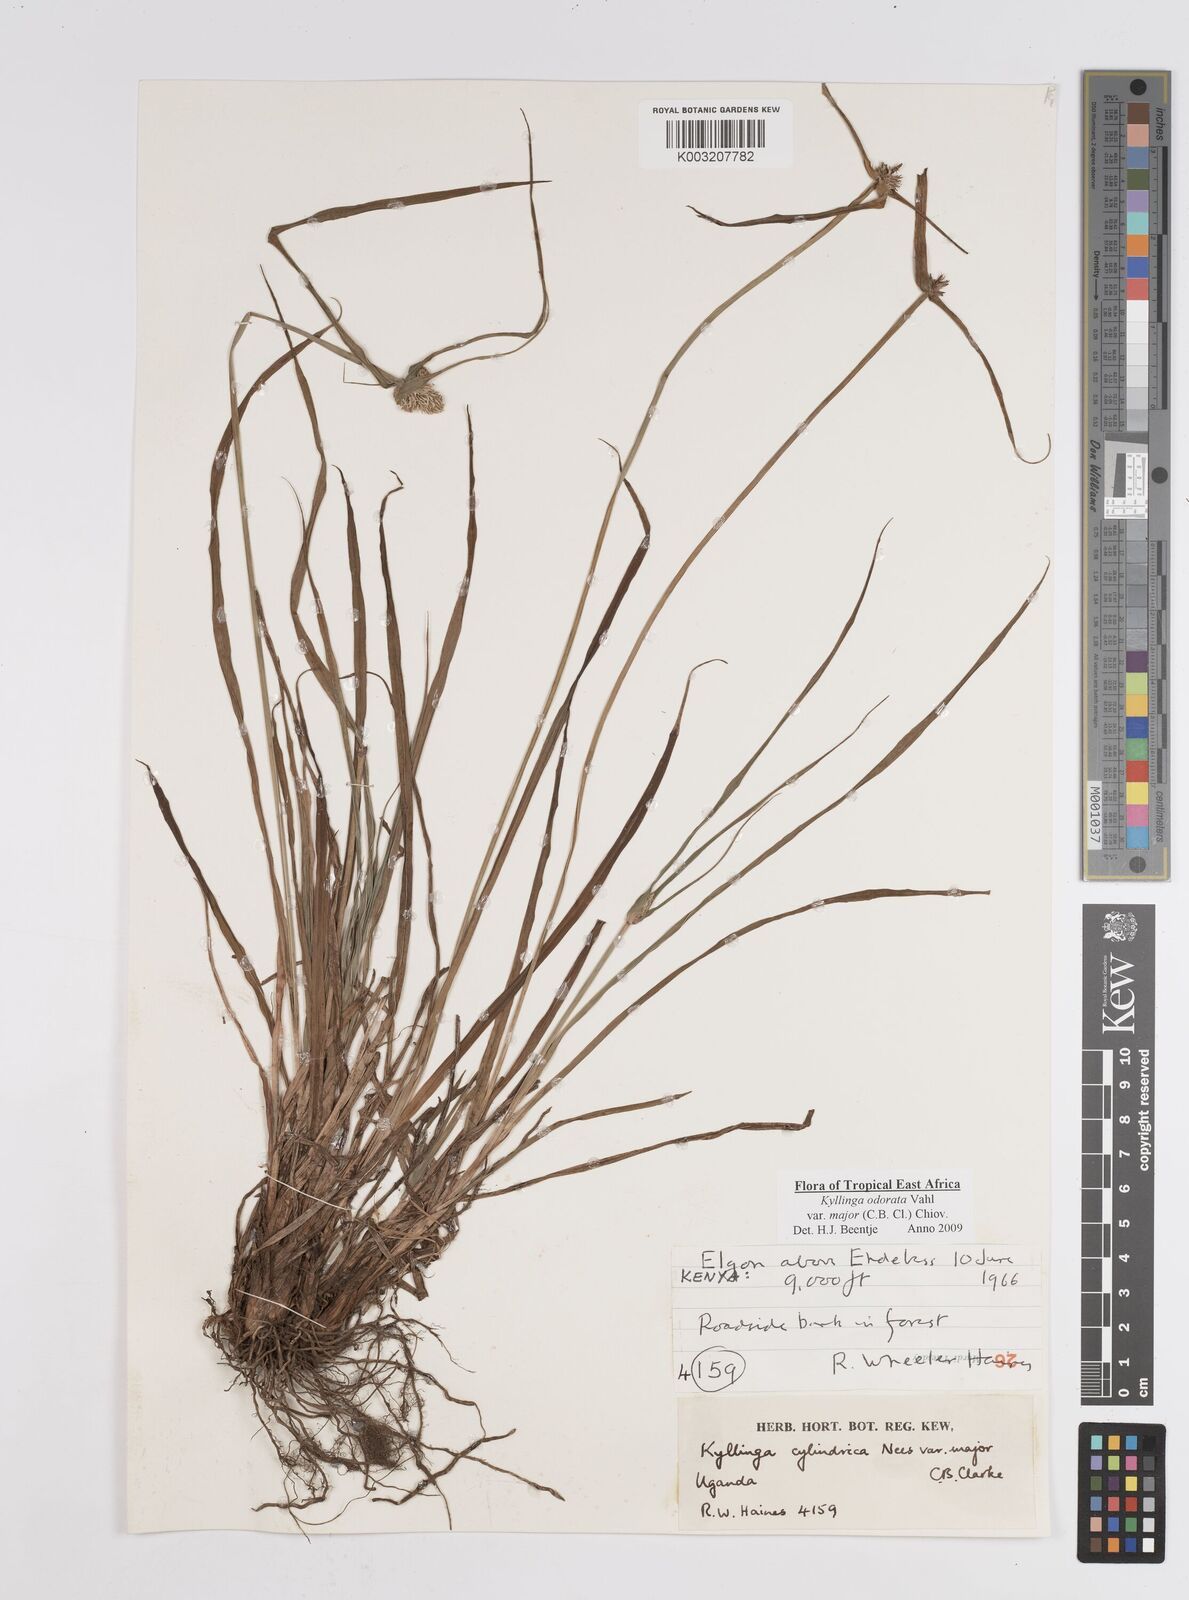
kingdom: Plantae
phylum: Tracheophyta
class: Liliopsida
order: Poales
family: Cyperaceae
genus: Cyperus
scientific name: Cyperus
